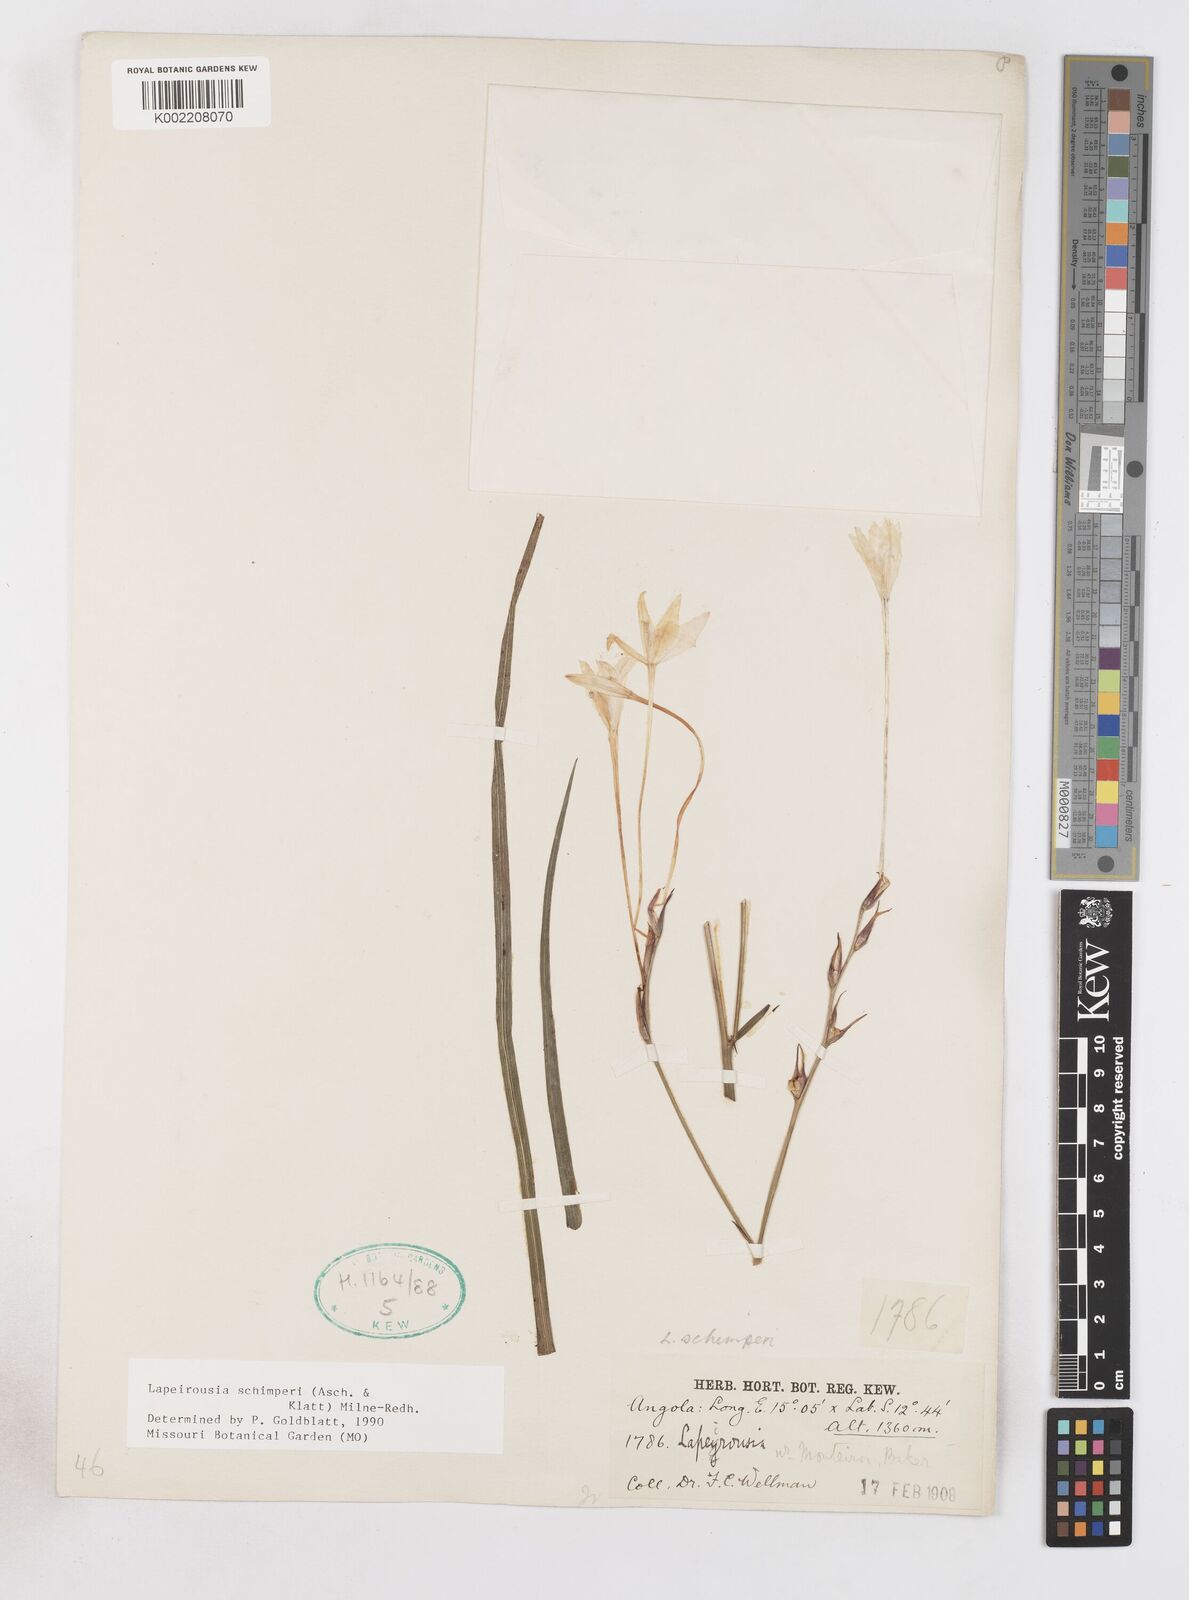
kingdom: Plantae
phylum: Tracheophyta
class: Liliopsida
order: Asparagales
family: Iridaceae
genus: Afrosolen
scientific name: Afrosolen schimperi
